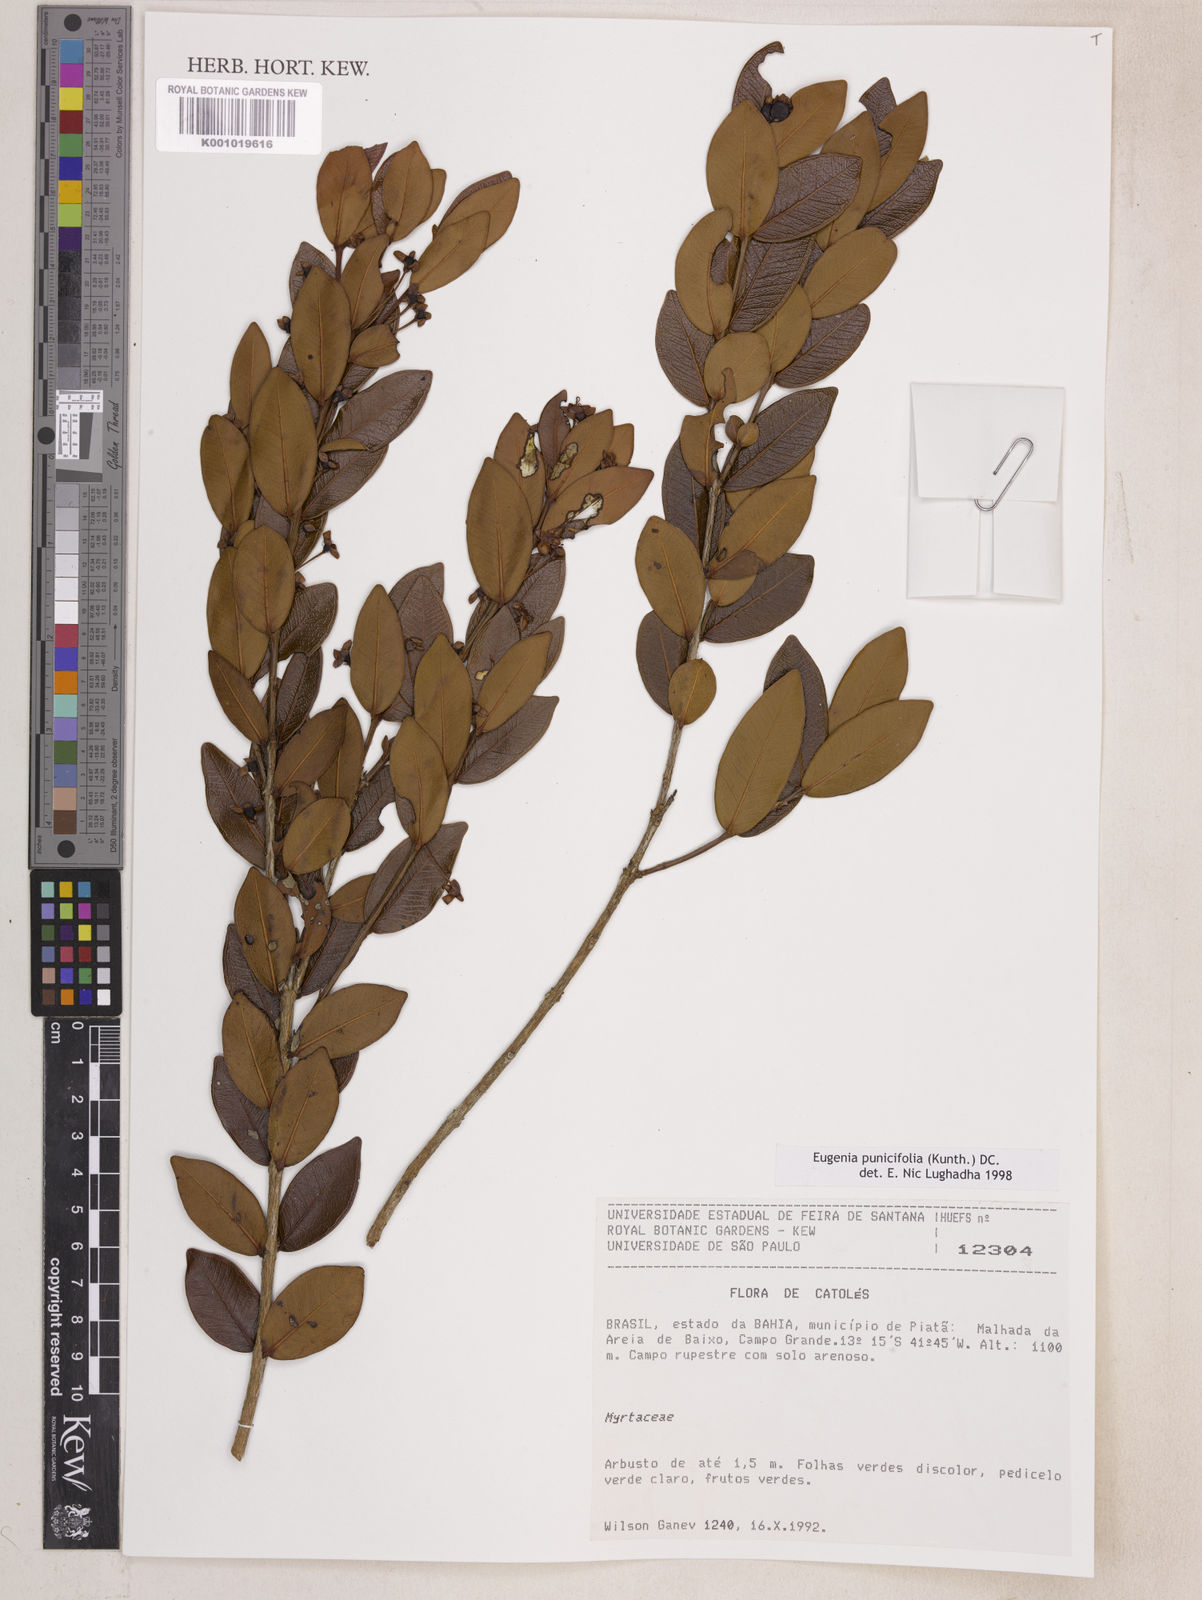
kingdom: Plantae
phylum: Tracheophyta
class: Magnoliopsida
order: Myrtales
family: Myrtaceae
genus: Eugenia
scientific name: Eugenia punicifolia
